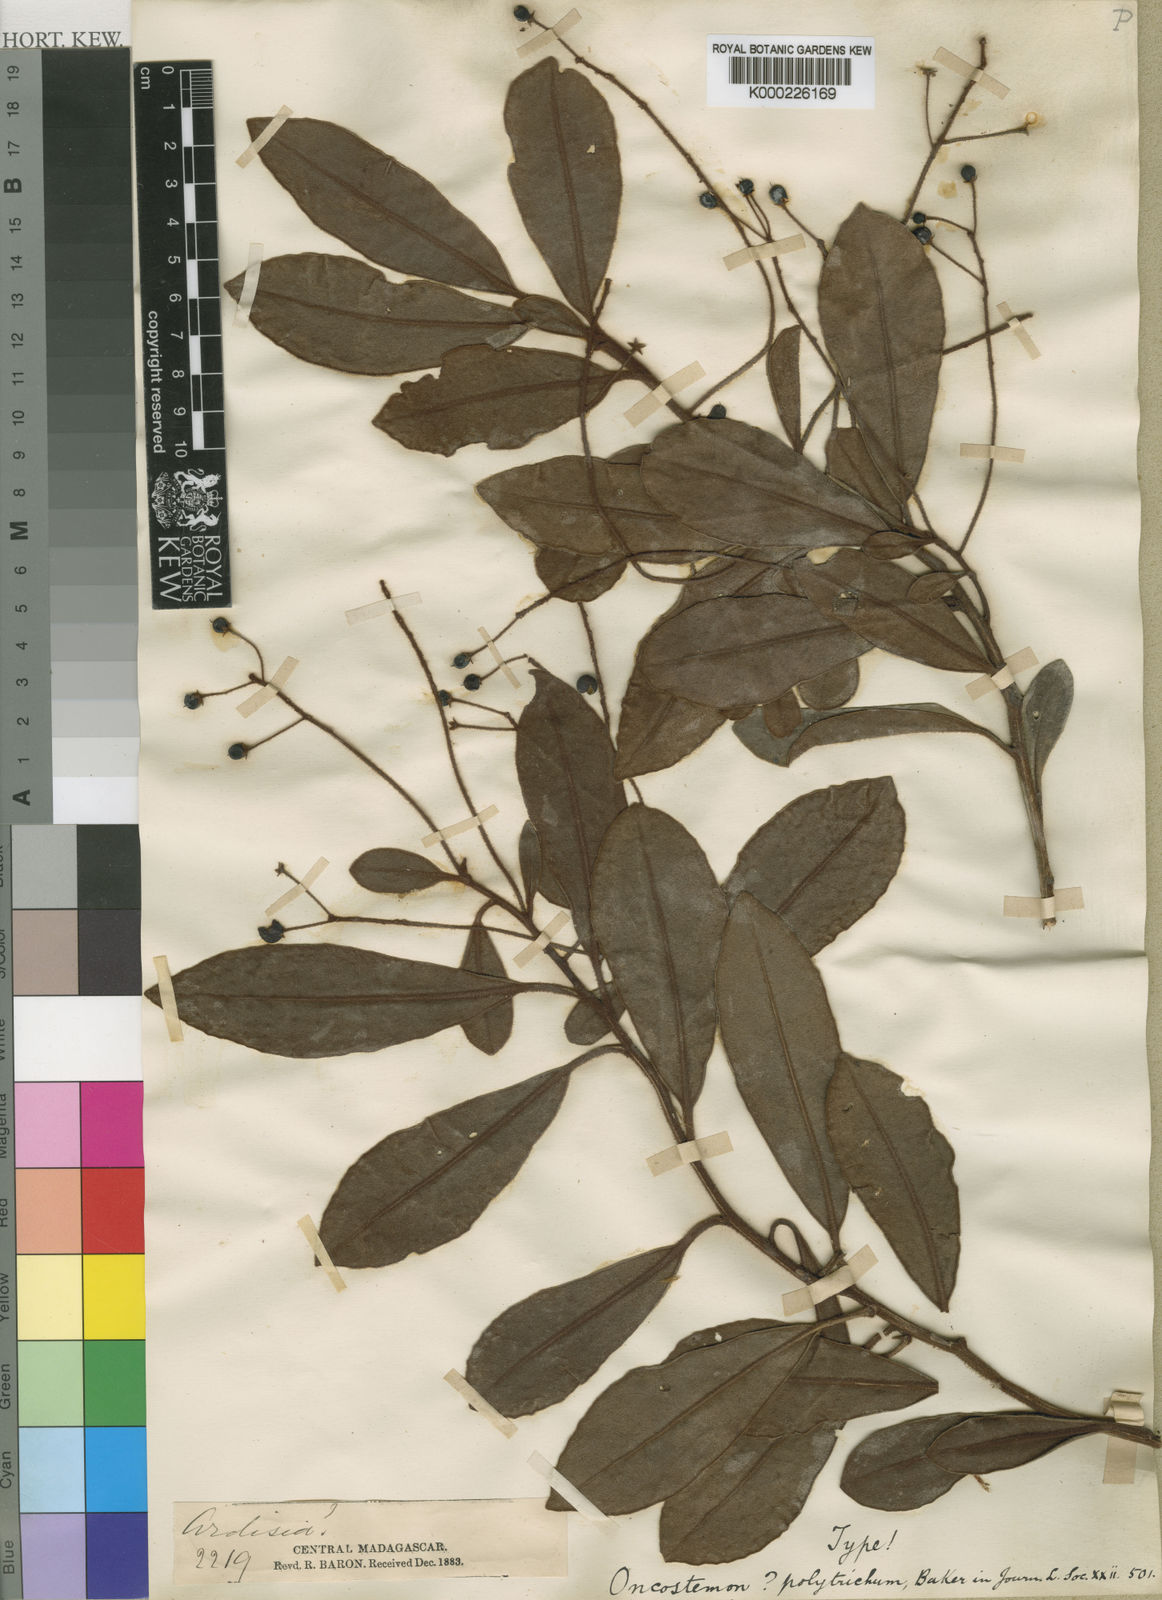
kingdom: Plantae
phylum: Tracheophyta
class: Magnoliopsida
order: Ericales
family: Primulaceae
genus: Oncostemum
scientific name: Oncostemum polytrichum
